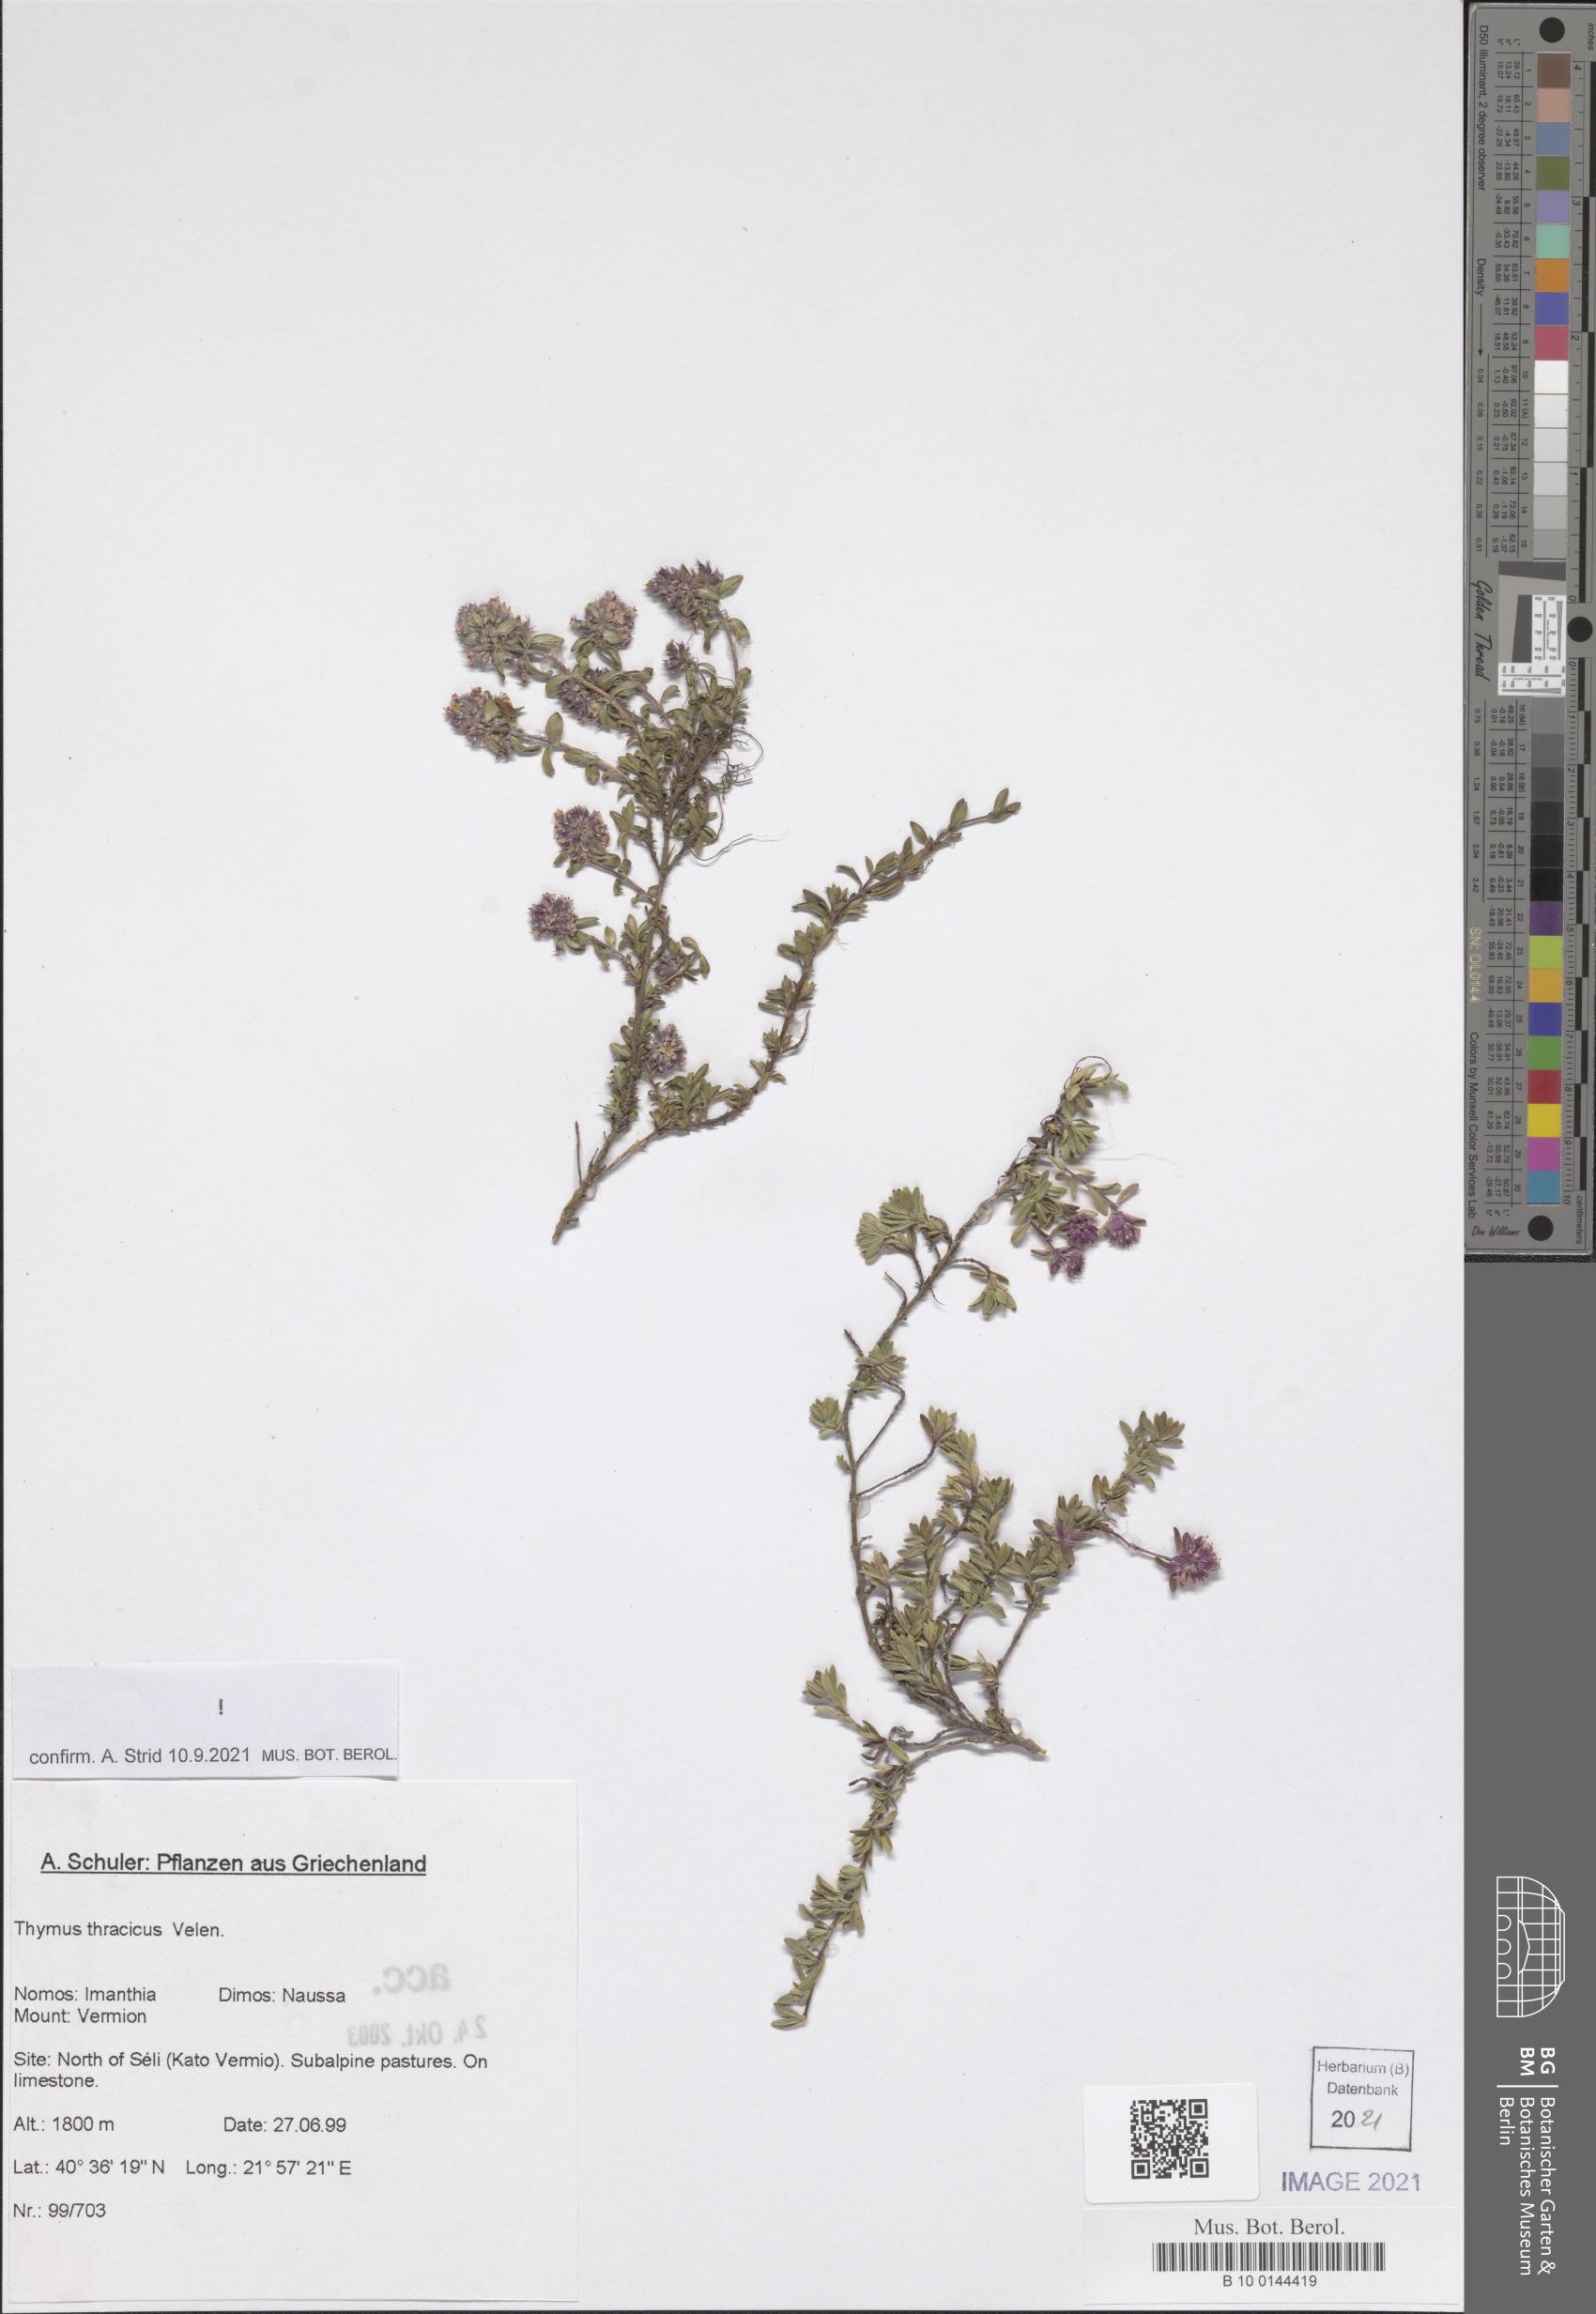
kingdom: Plantae
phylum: Tracheophyta
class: Magnoliopsida
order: Lamiales
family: Lamiaceae
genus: Thymus
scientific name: Thymus thracicus
